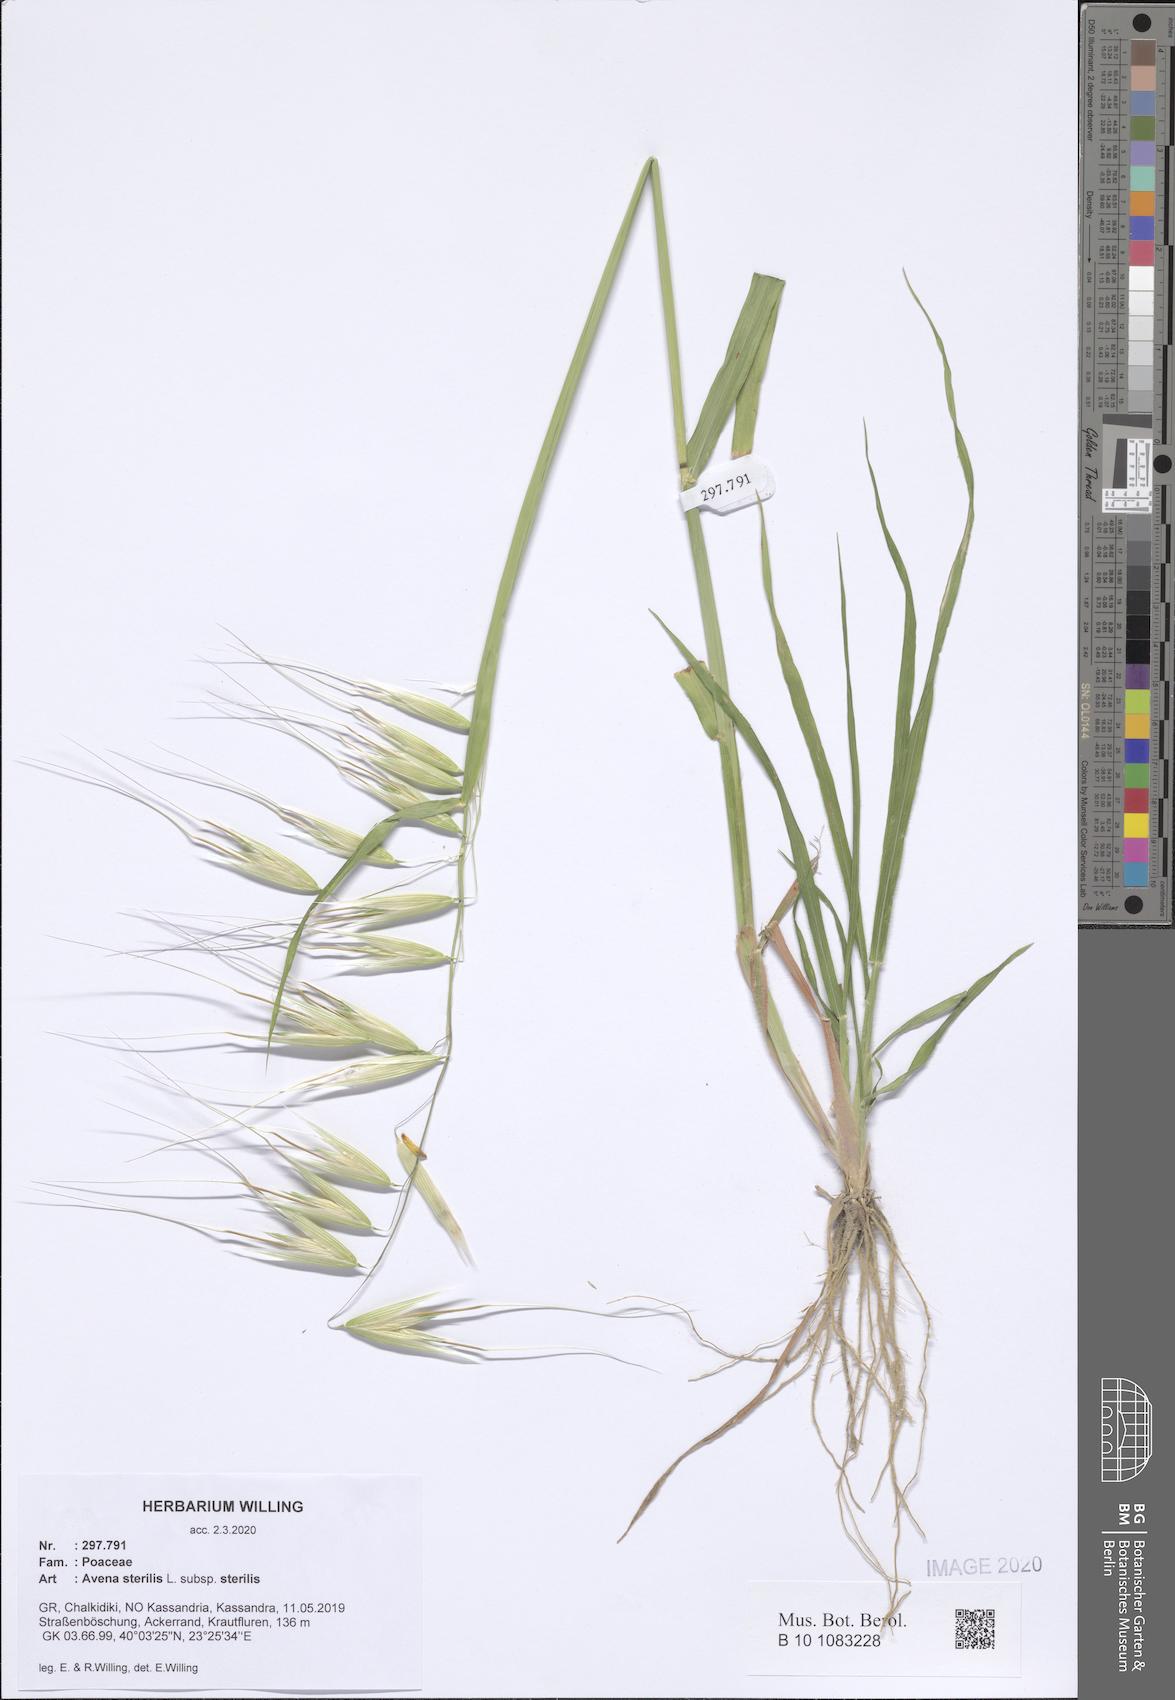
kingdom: Plantae
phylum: Tracheophyta
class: Liliopsida
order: Poales
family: Poaceae
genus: Avena
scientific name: Avena sterilis
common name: Animated oat
